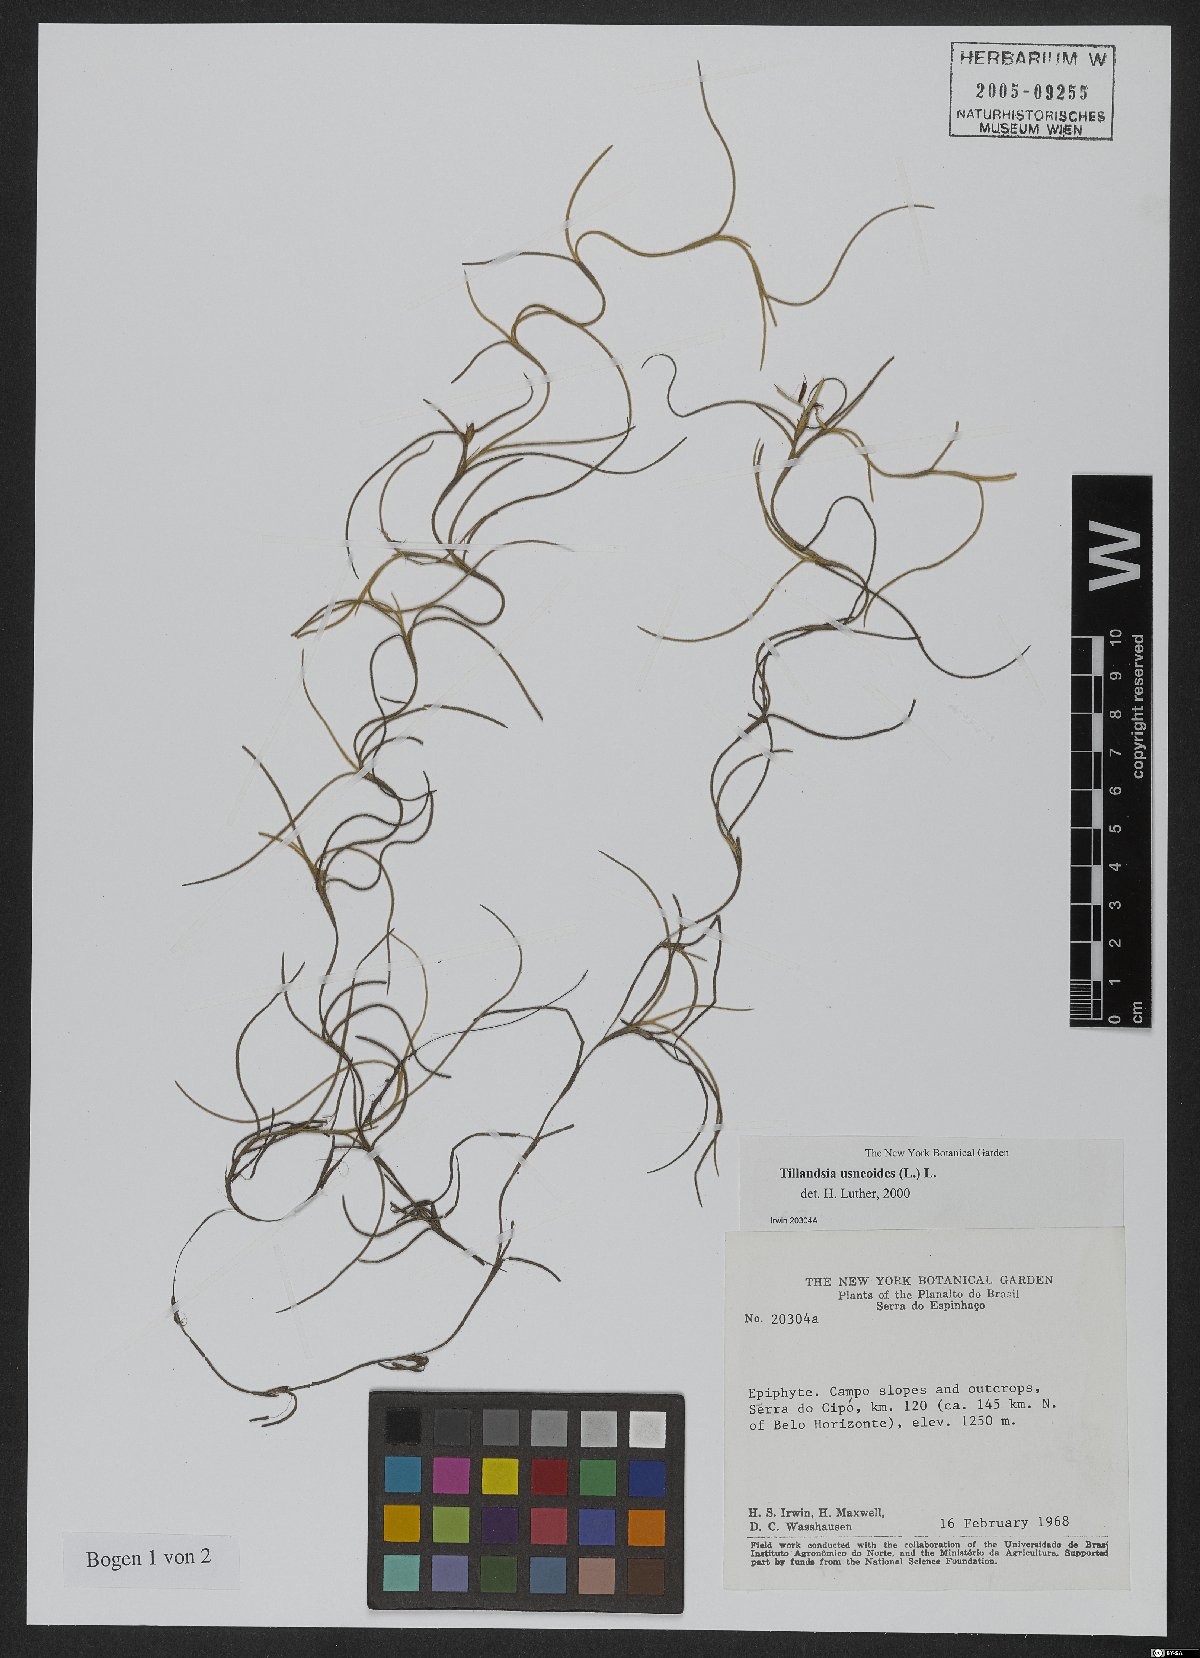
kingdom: Plantae
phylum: Tracheophyta
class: Liliopsida
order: Poales
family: Bromeliaceae
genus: Tillandsia
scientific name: Tillandsia usneoides
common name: Spanish moss
